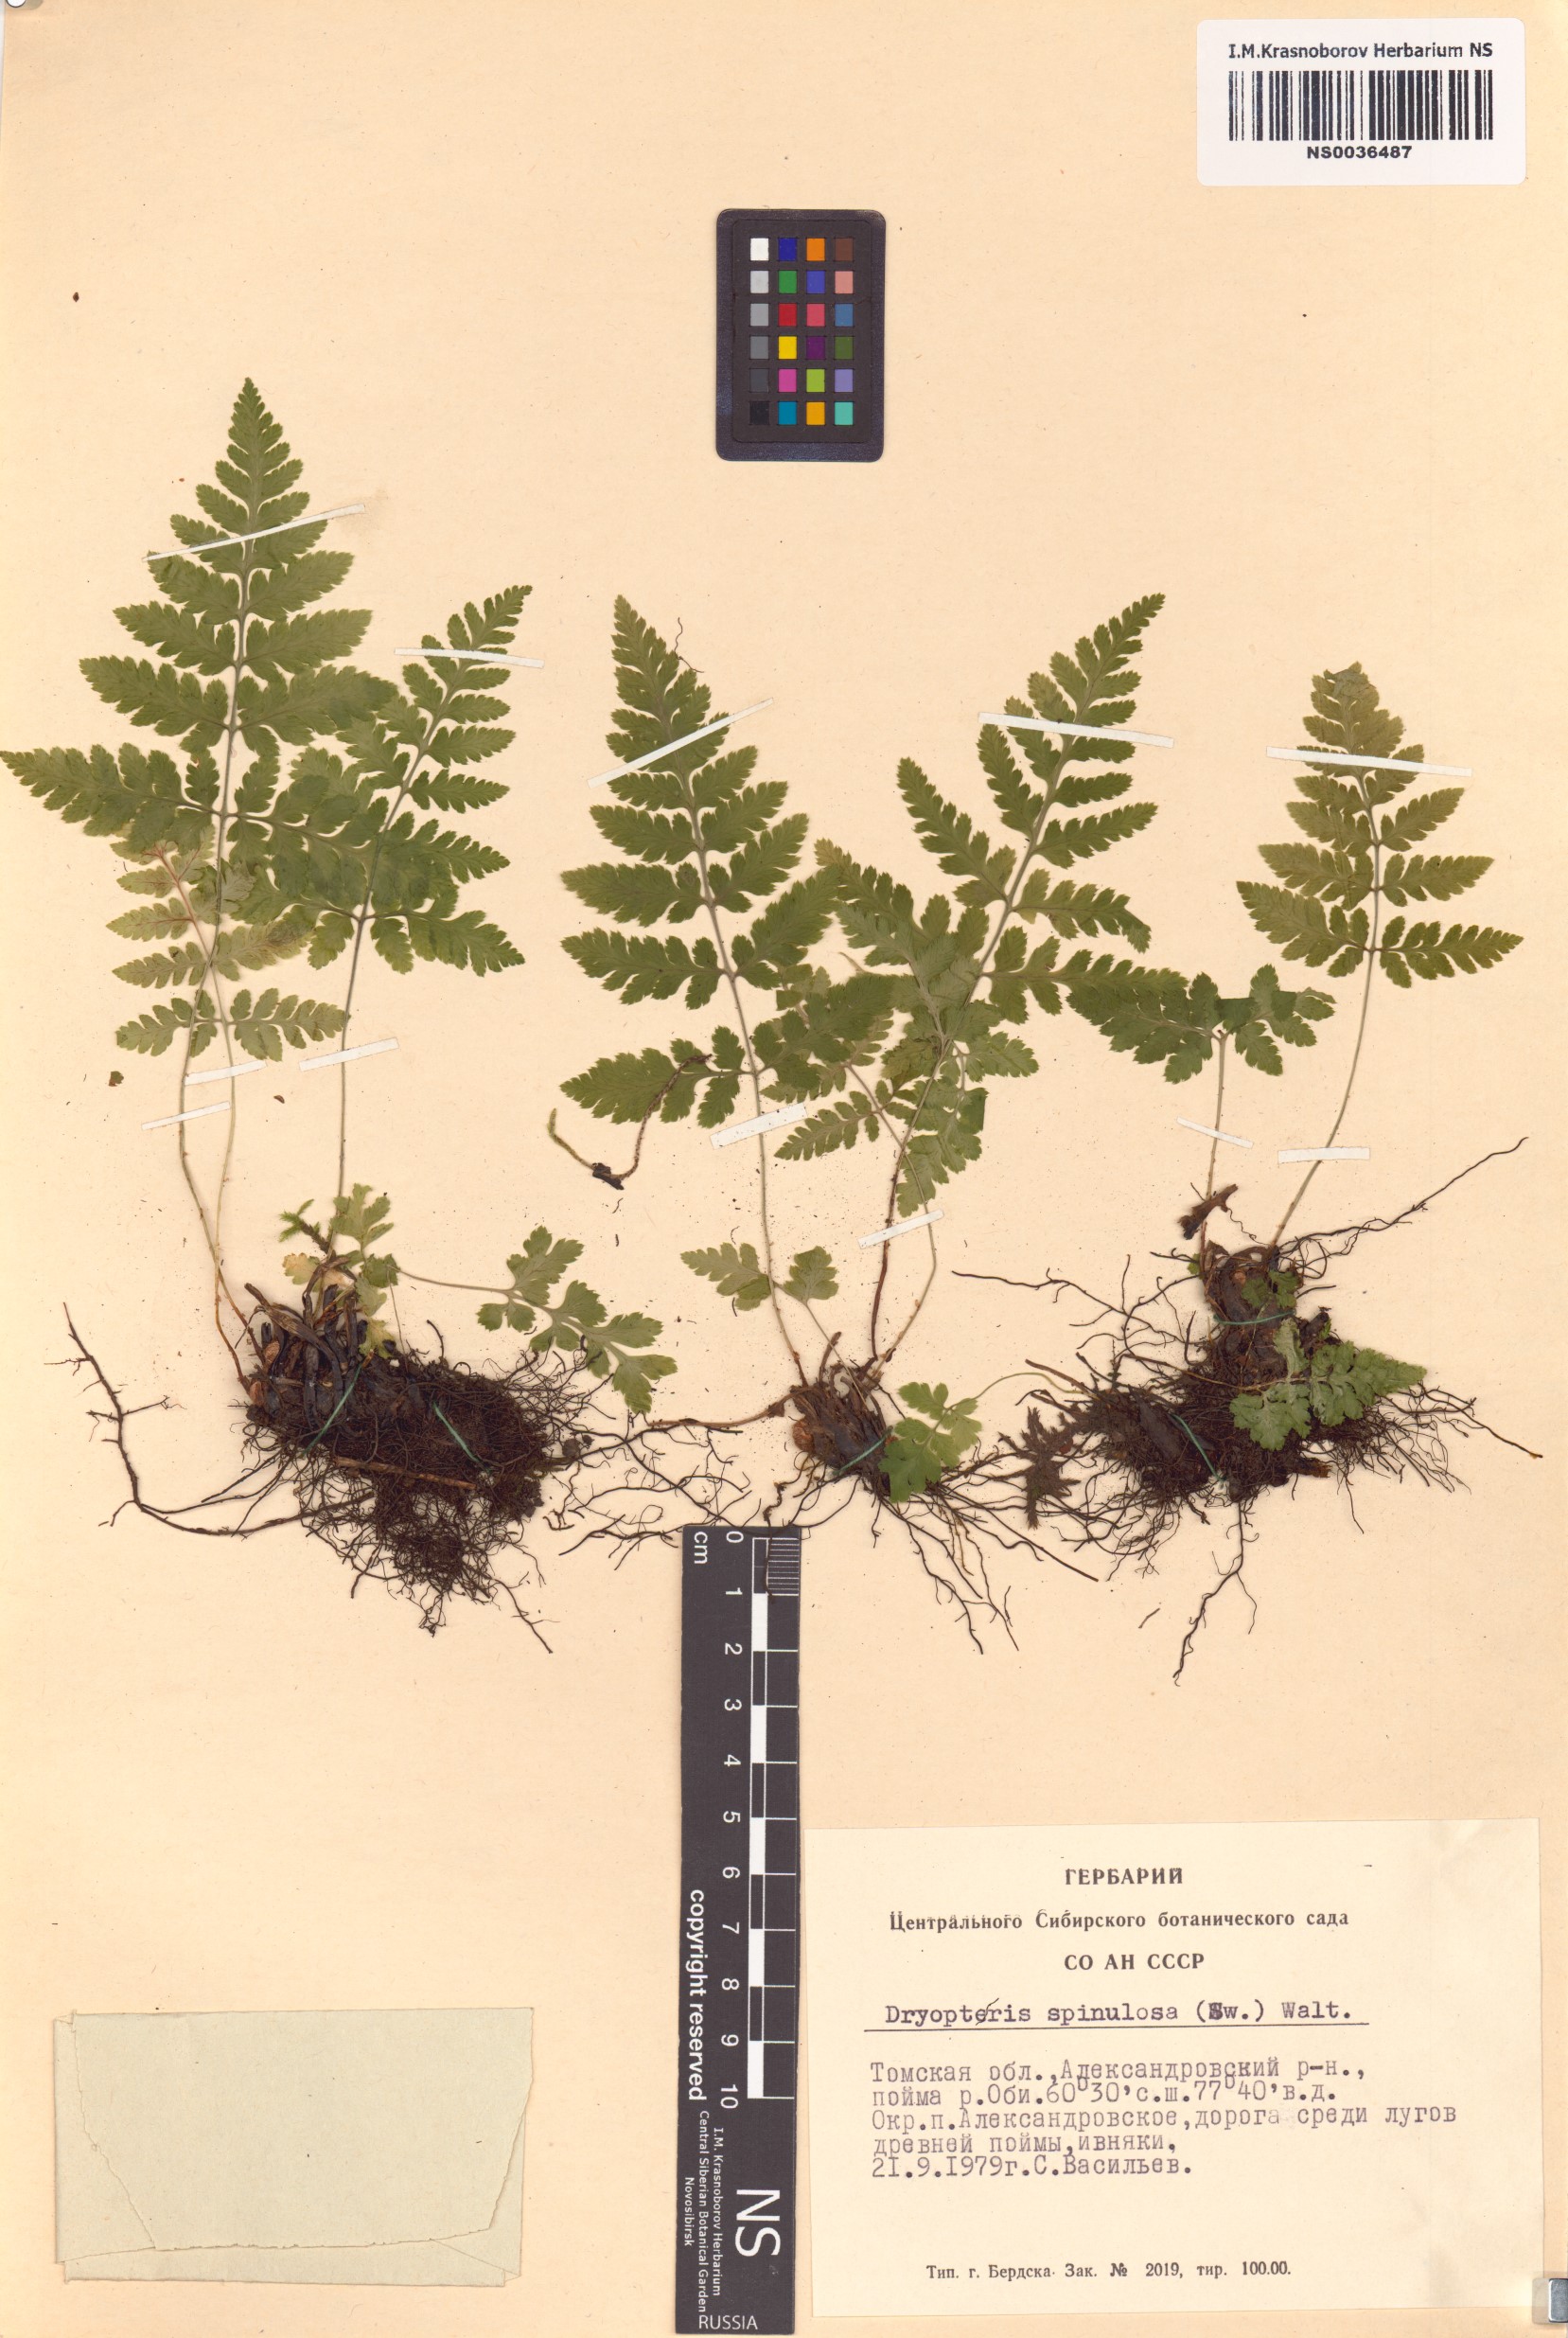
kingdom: Plantae
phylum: Tracheophyta
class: Polypodiopsida
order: Polypodiales
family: Dryopteridaceae
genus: Dryopteris
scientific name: Dryopteris carthusiana
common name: Narrow buckler-fern
